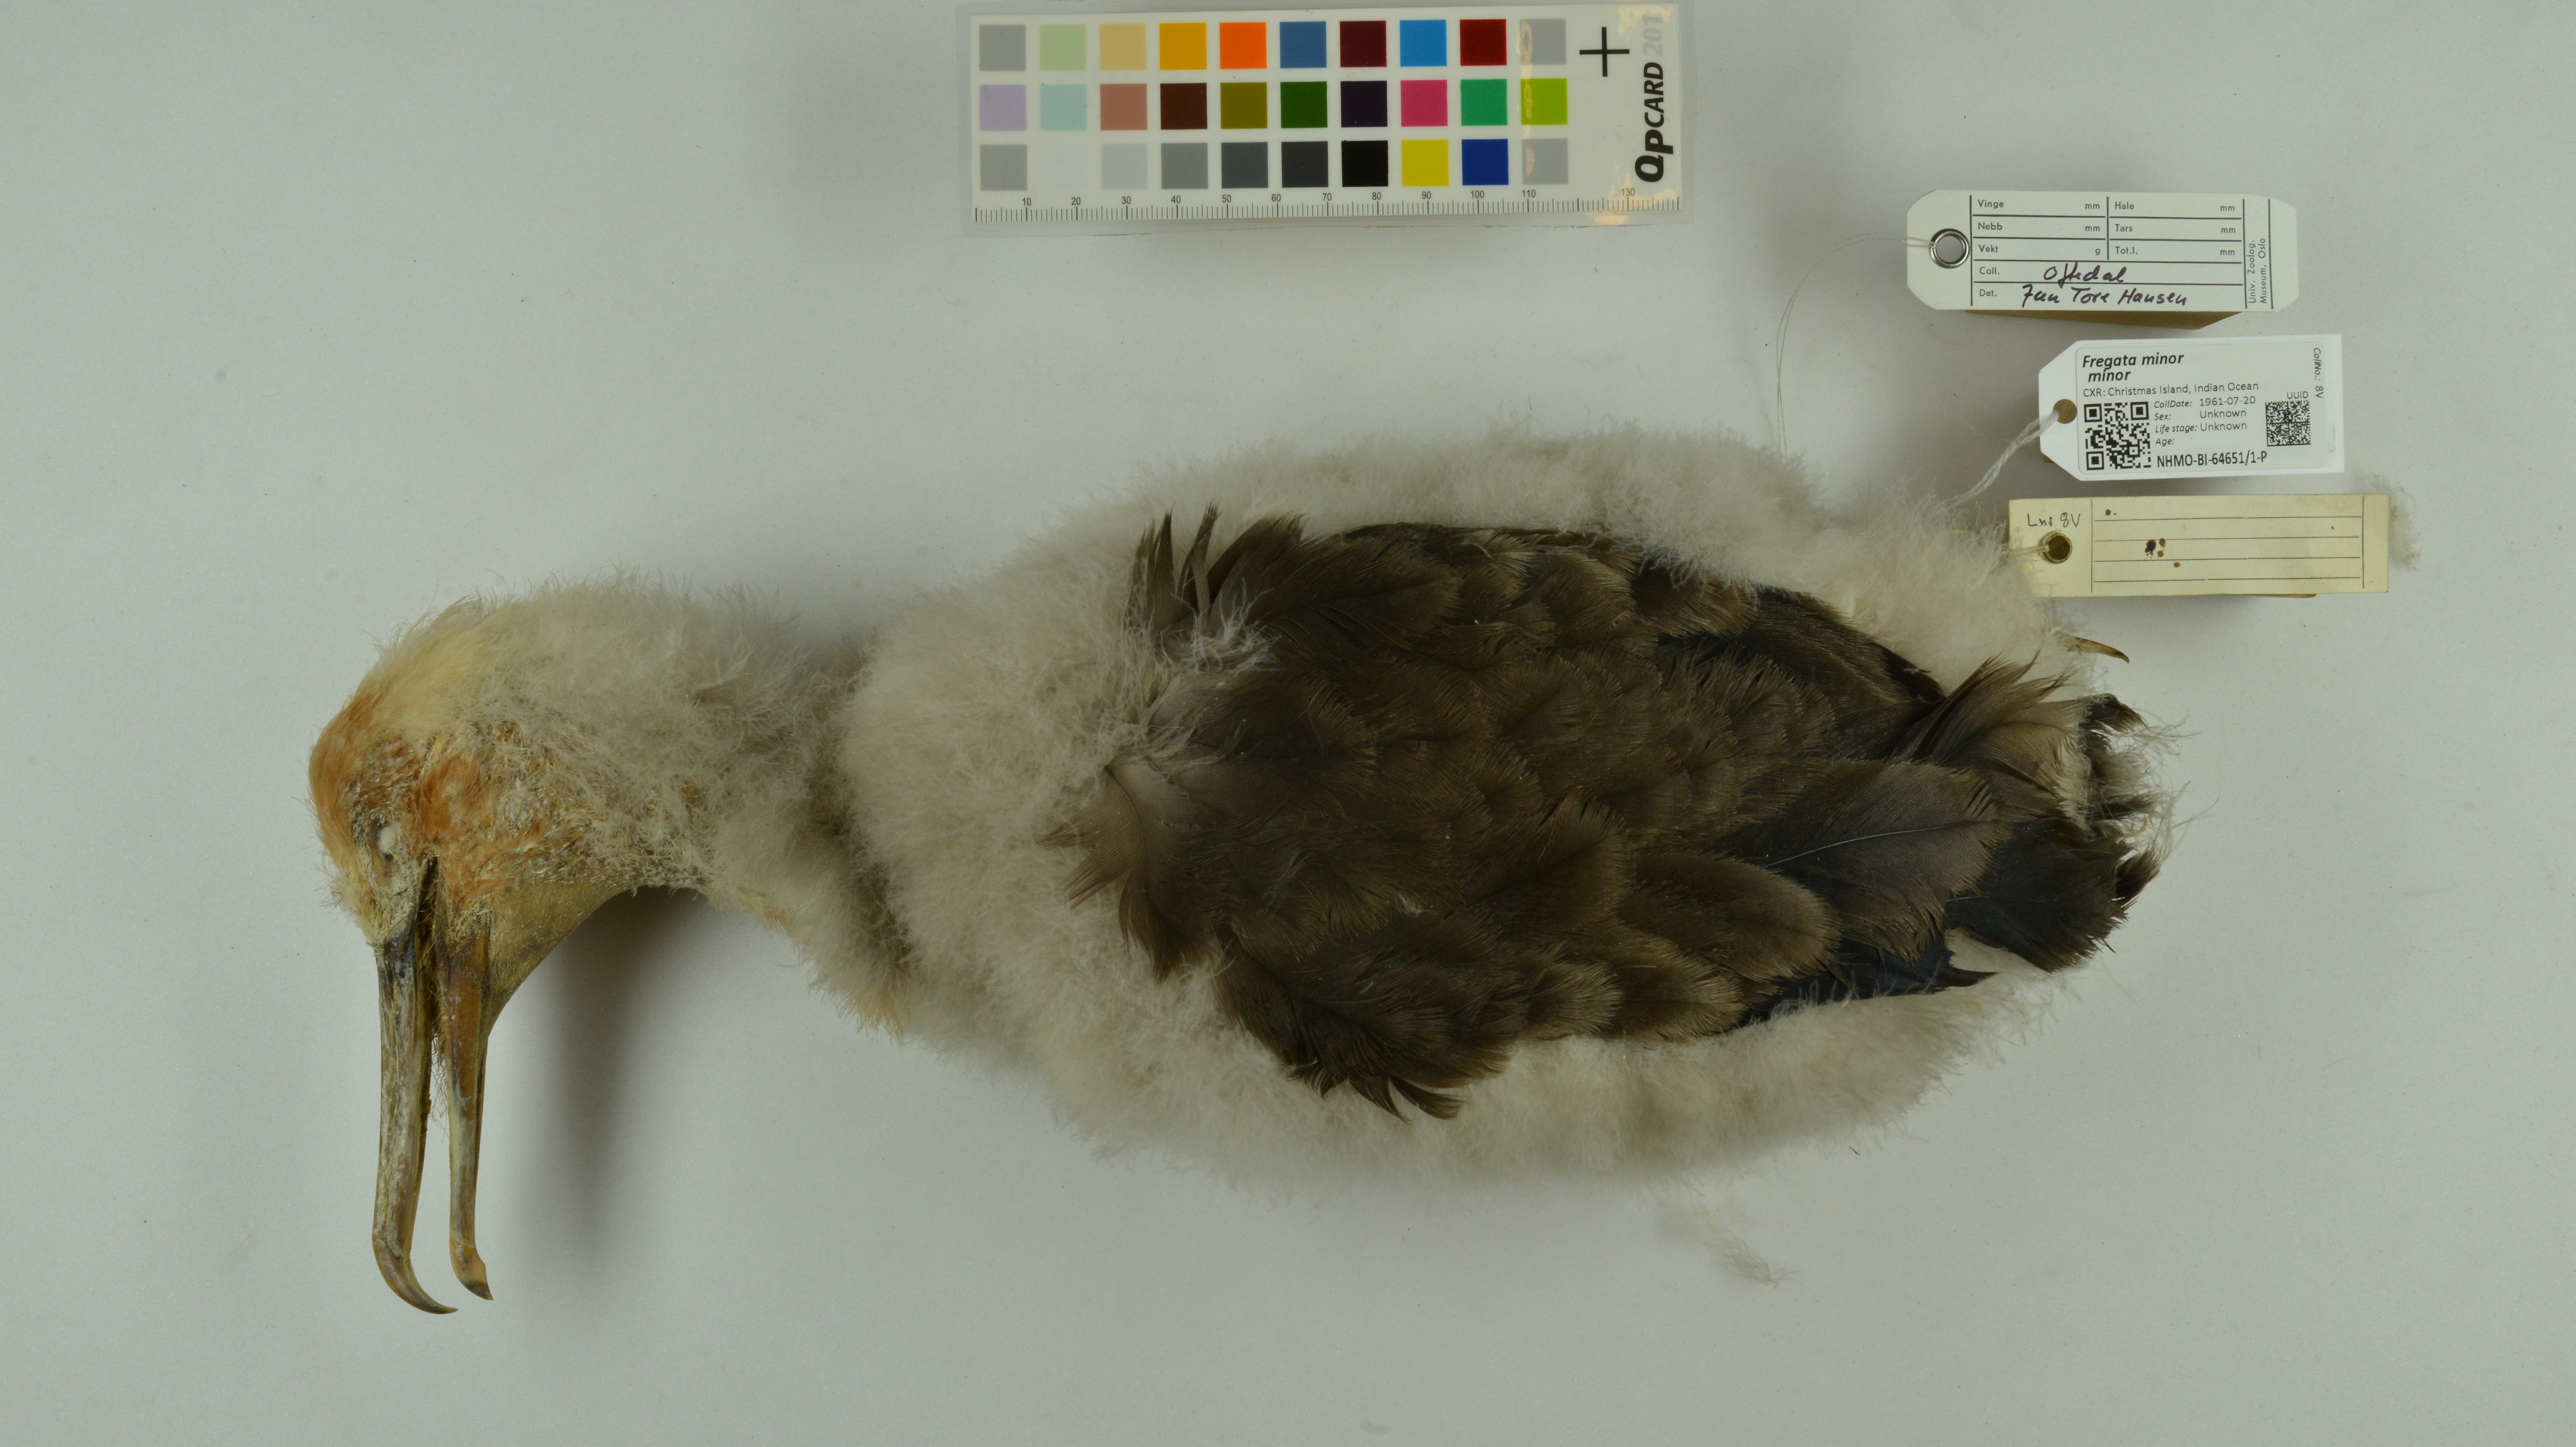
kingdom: Animalia
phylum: Chordata
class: Aves
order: Suliformes
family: Fregatidae
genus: Fregata
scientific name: Fregata minor
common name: Great frigatebird
